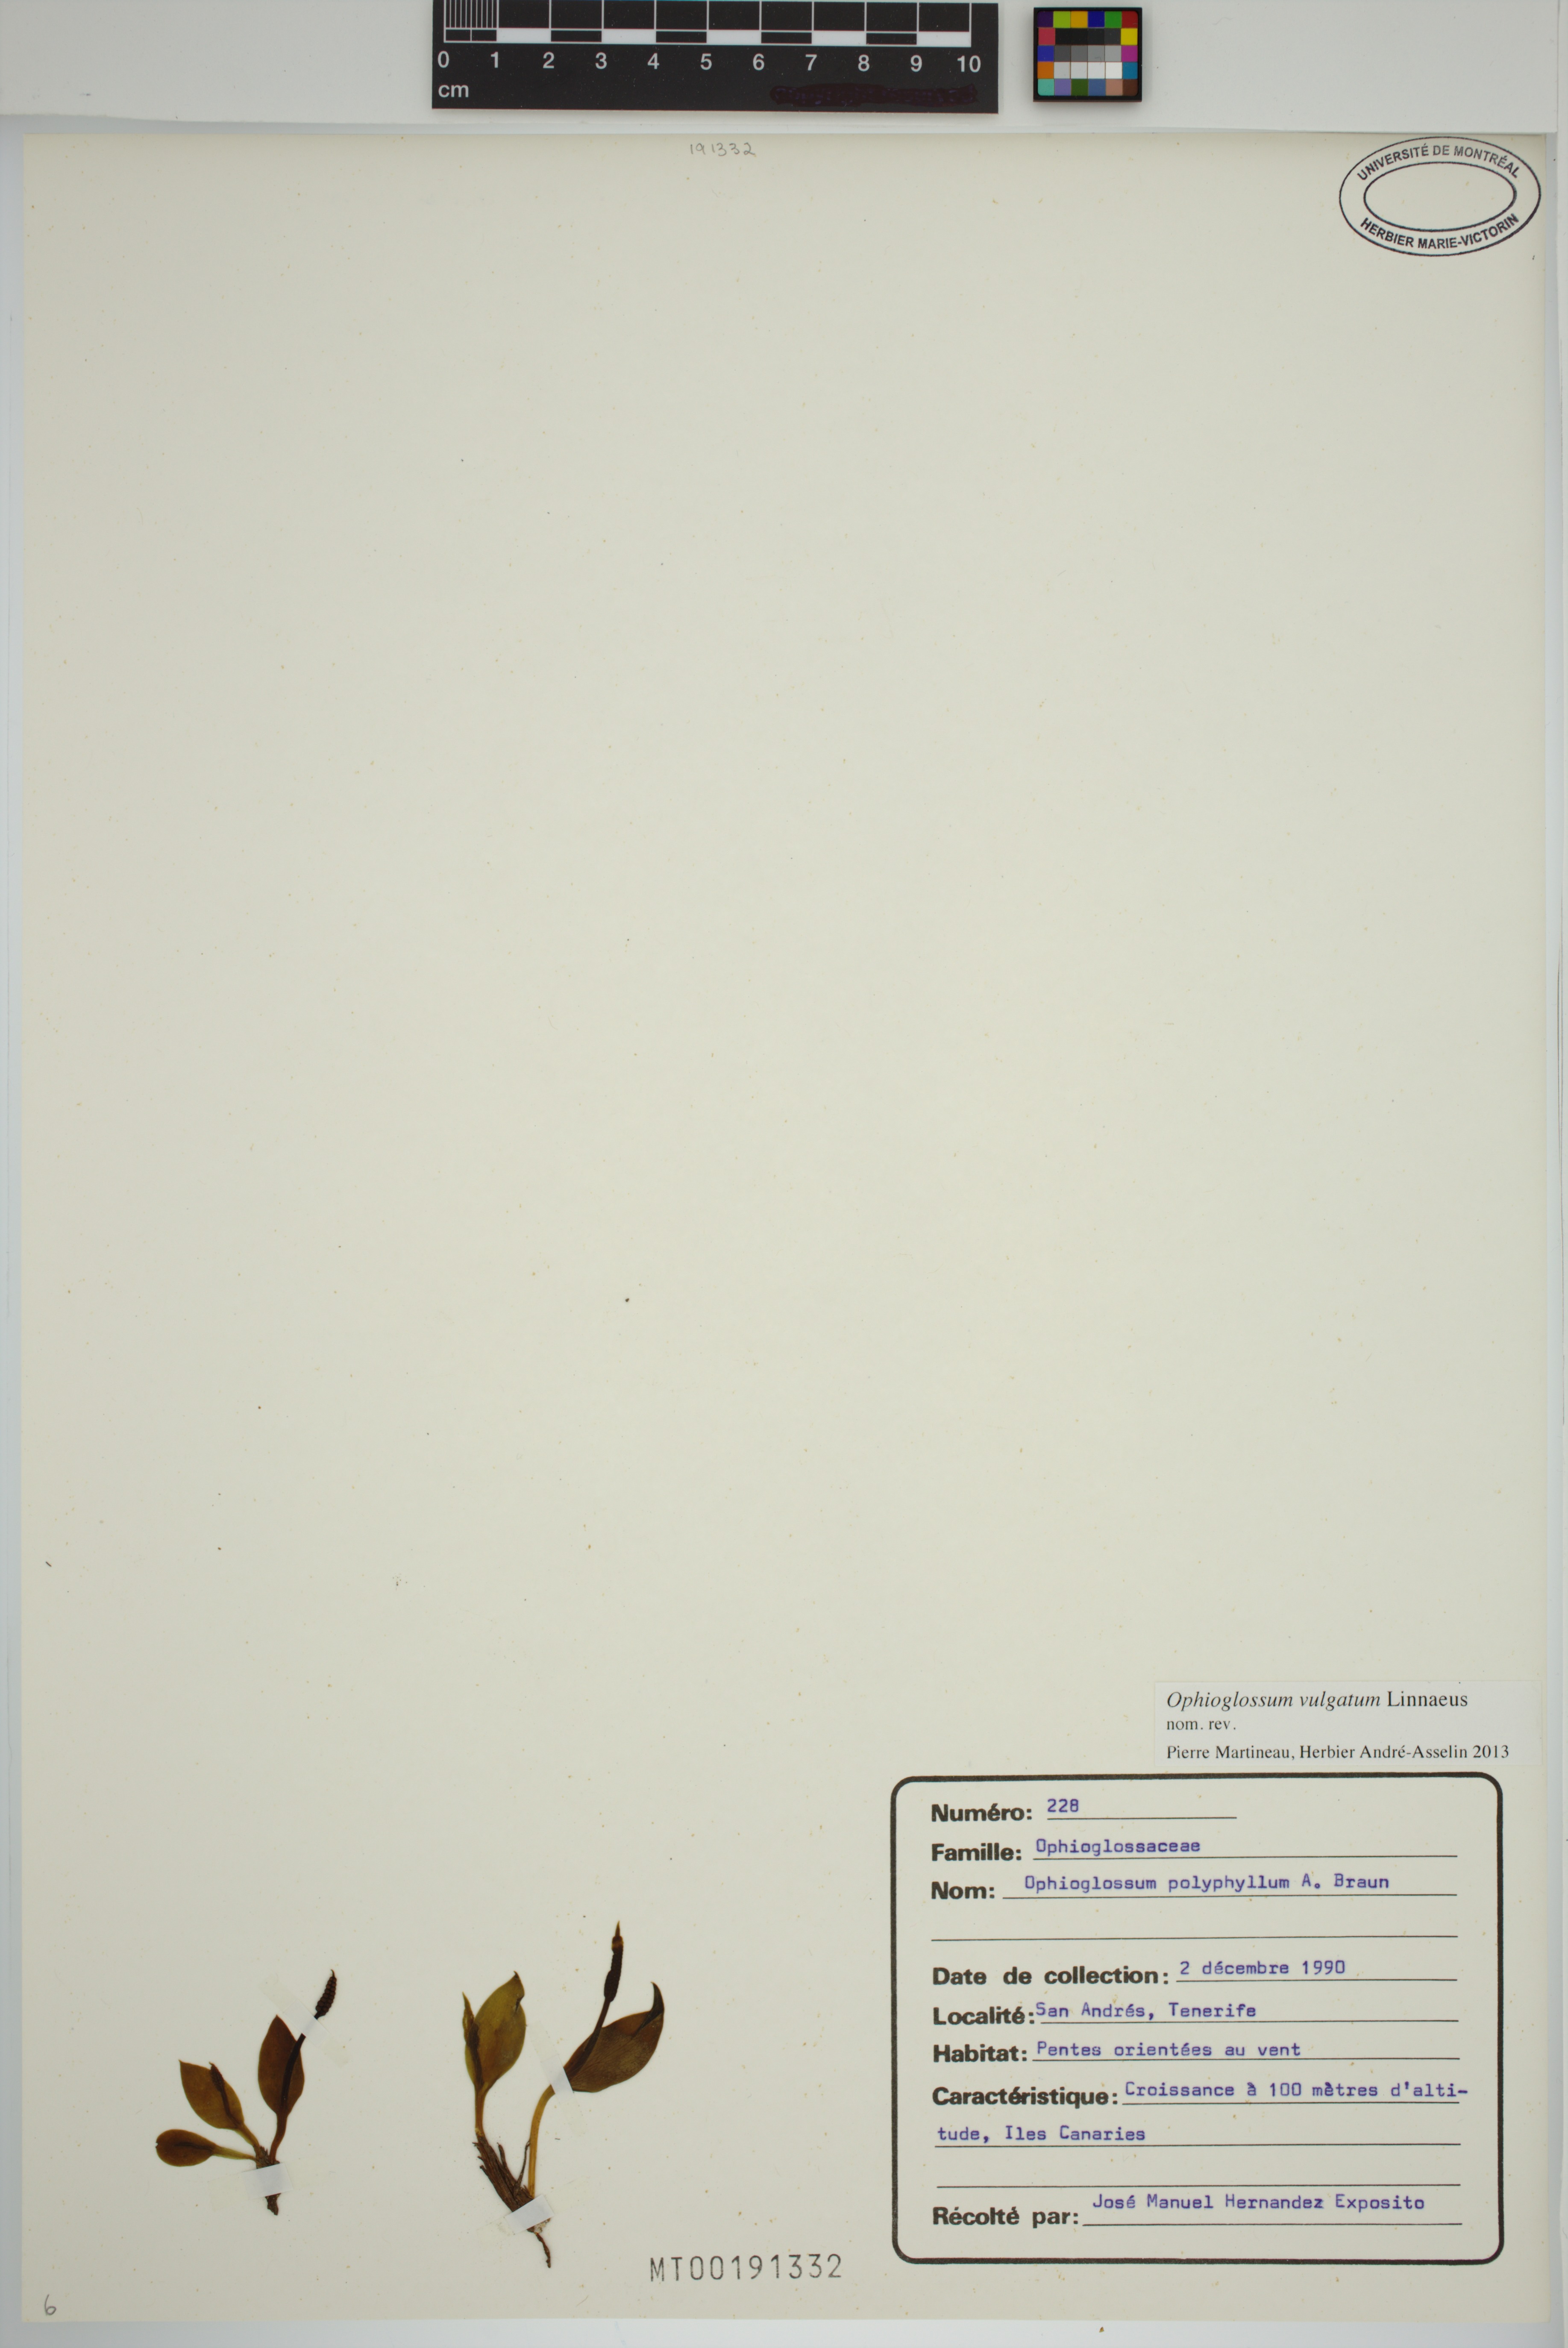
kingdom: Plantae
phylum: Tracheophyta
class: Polypodiopsida
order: Ophioglossales
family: Ophioglossaceae
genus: Ophioglossum
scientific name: Ophioglossum vulgatum
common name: Adder's-tongue
